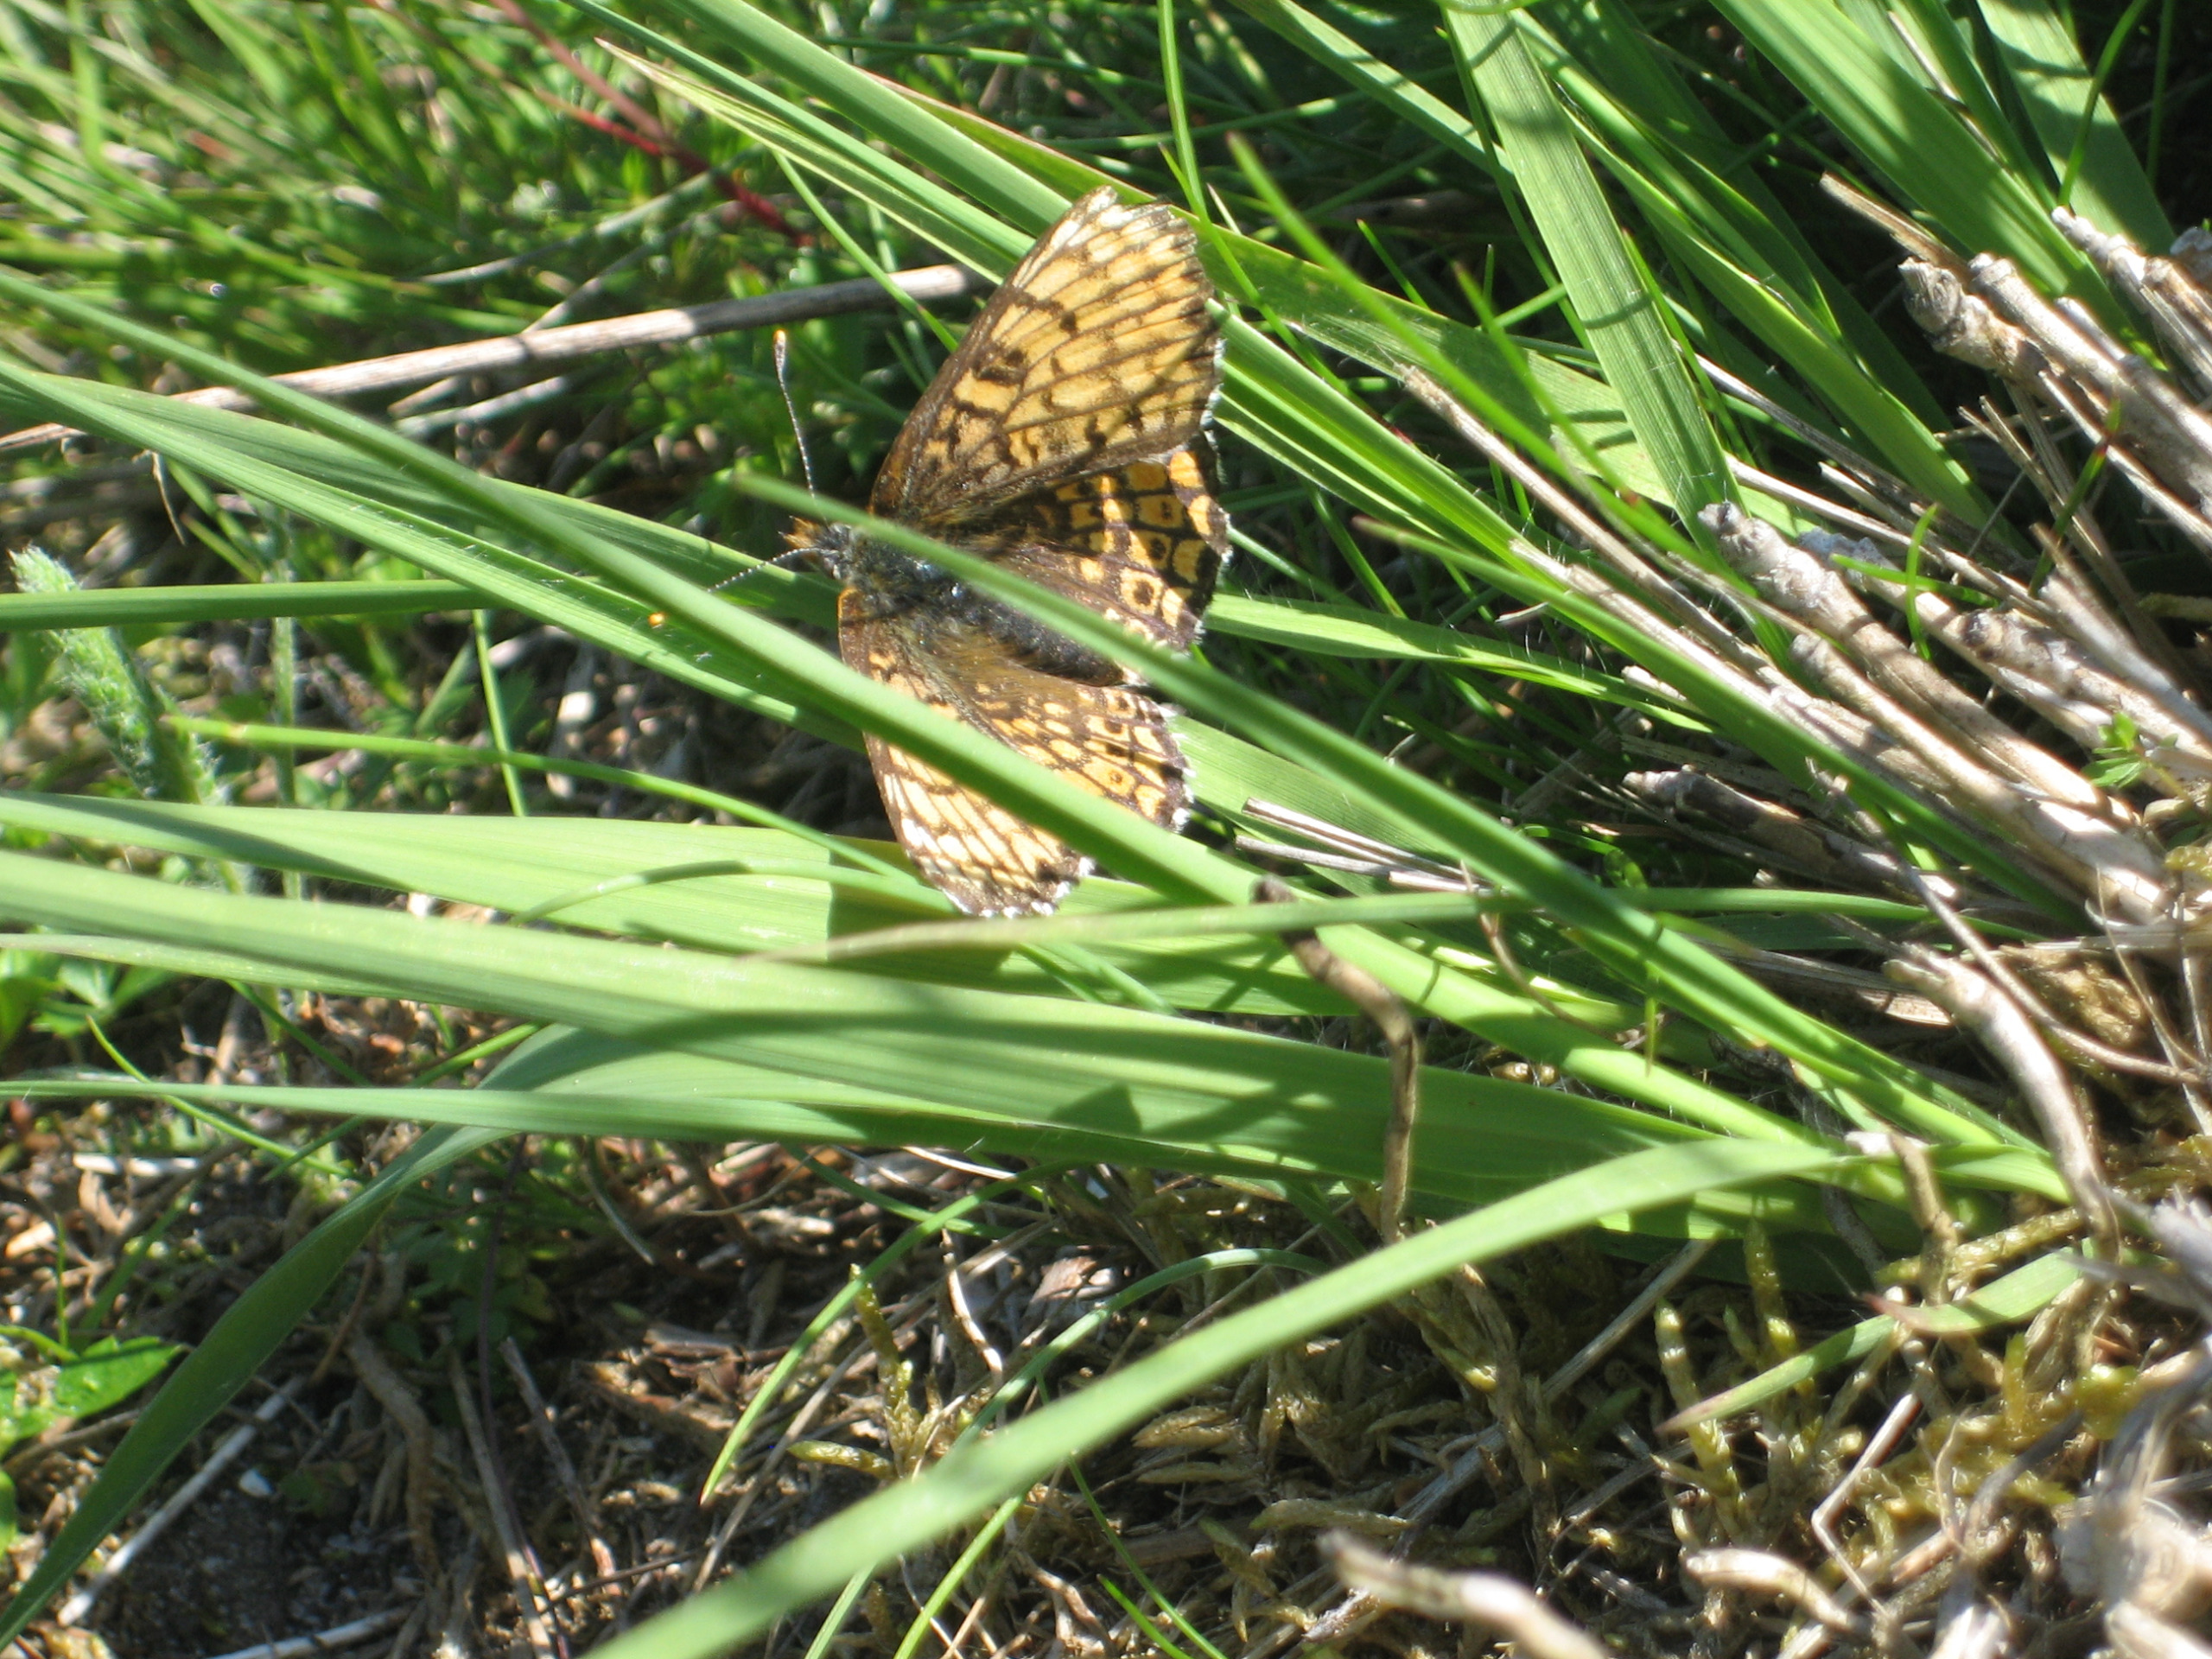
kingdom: Animalia
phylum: Arthropoda
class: Insecta
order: Lepidoptera
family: Nymphalidae
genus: Melitaea
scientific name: Melitaea cinxia
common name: Okkergul pletvinge
